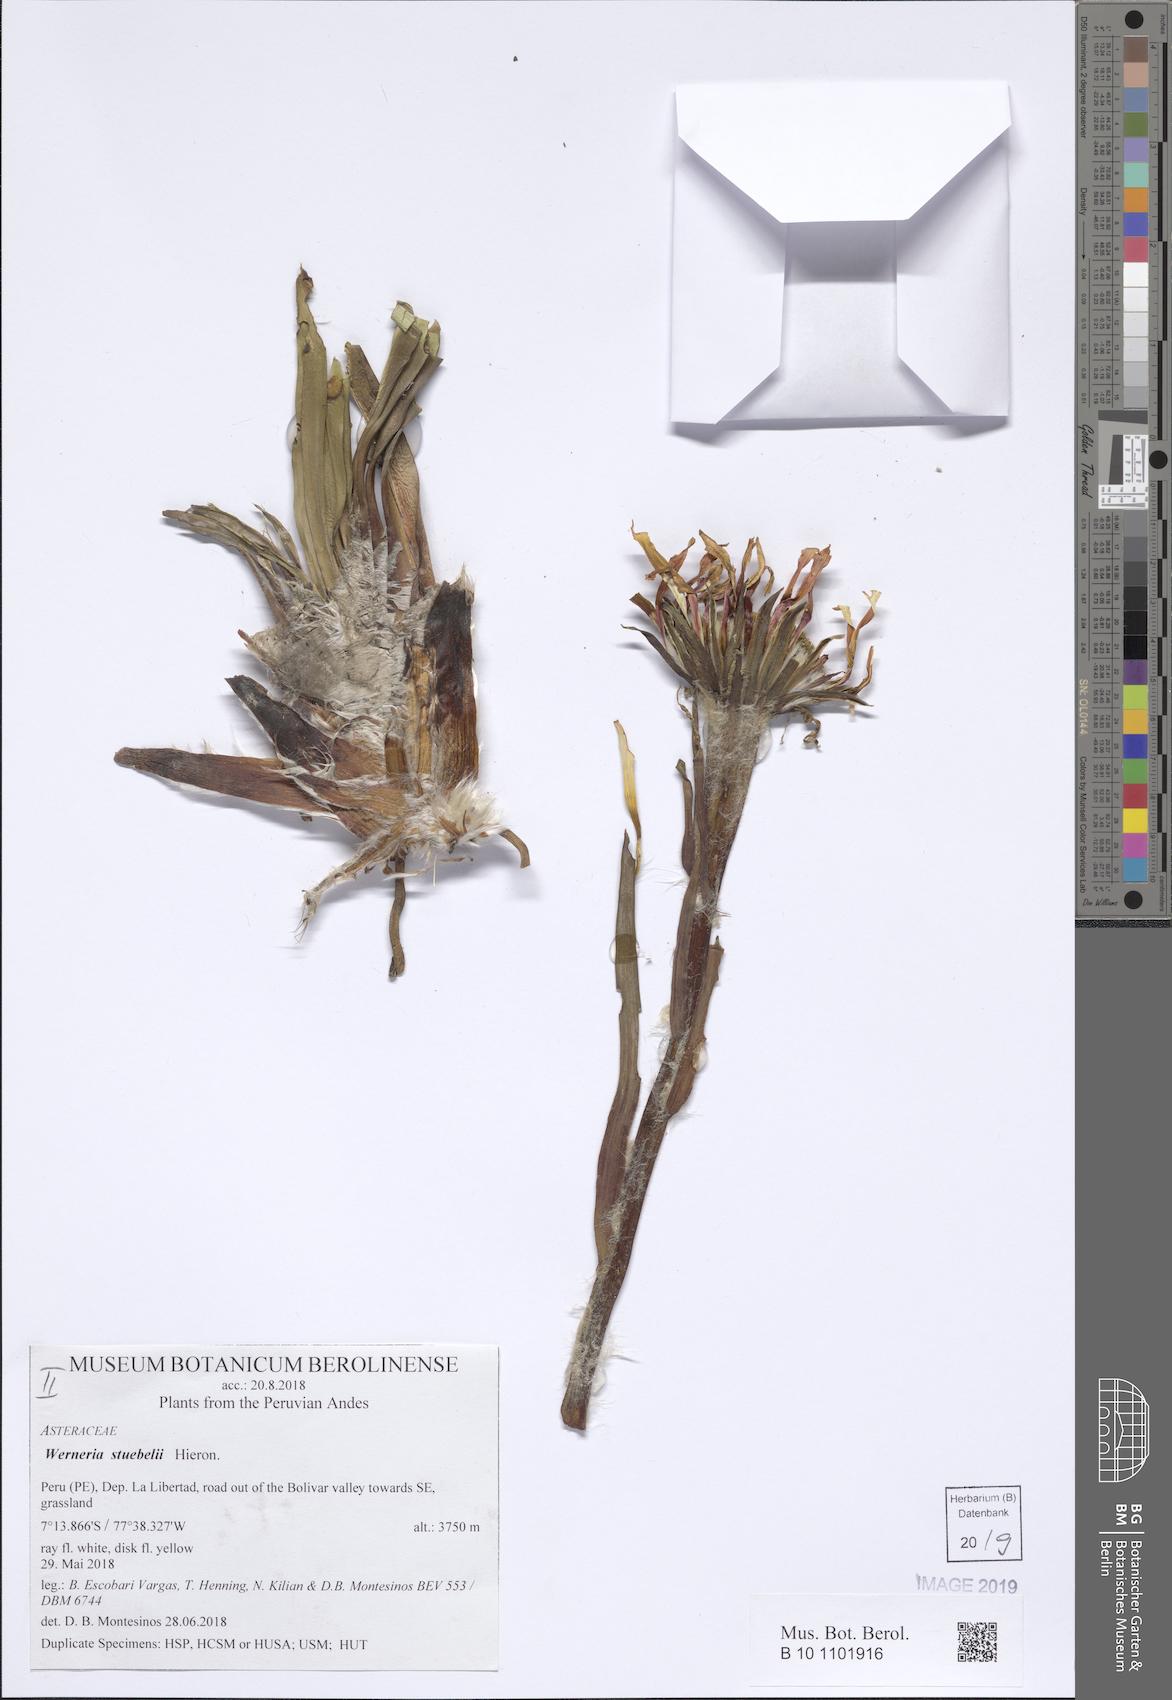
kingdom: Plantae
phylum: Tracheophyta
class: Magnoliopsida
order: Asterales
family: Asteraceae
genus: Rockhausenia
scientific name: Rockhausenia nubigena
